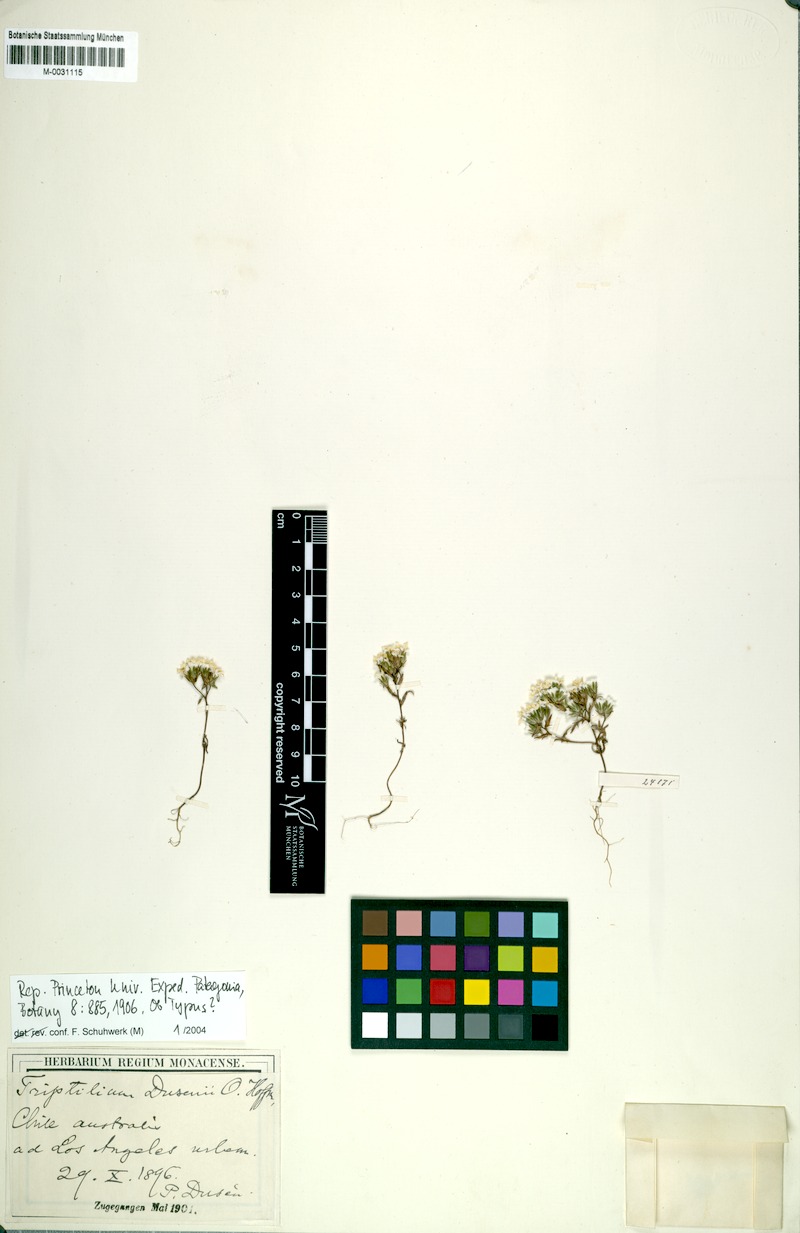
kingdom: Plantae
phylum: Tracheophyta
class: Magnoliopsida
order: Asterales
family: Asteraceae
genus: Triptilion
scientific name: Triptilion achilleae
